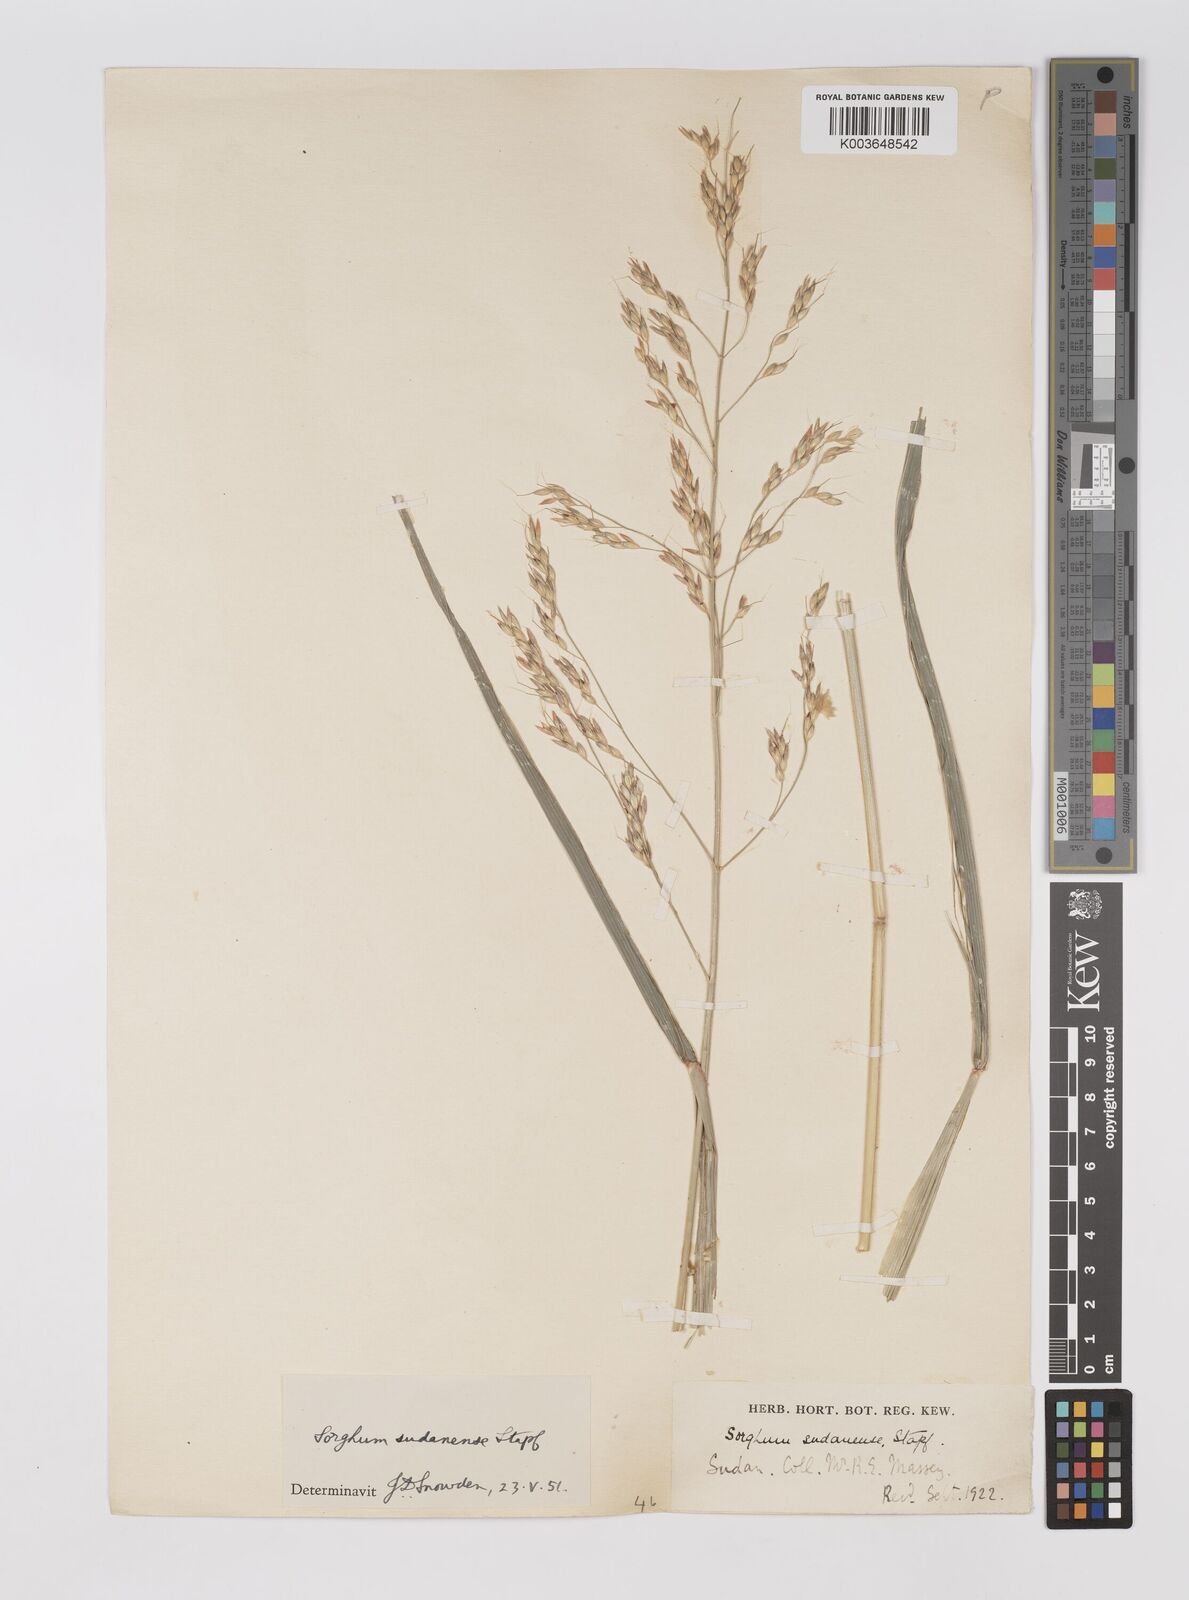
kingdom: Plantae
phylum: Tracheophyta
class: Liliopsida
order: Poales
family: Poaceae
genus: Sorghum
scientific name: Sorghum drummondii
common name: Sudangrass
